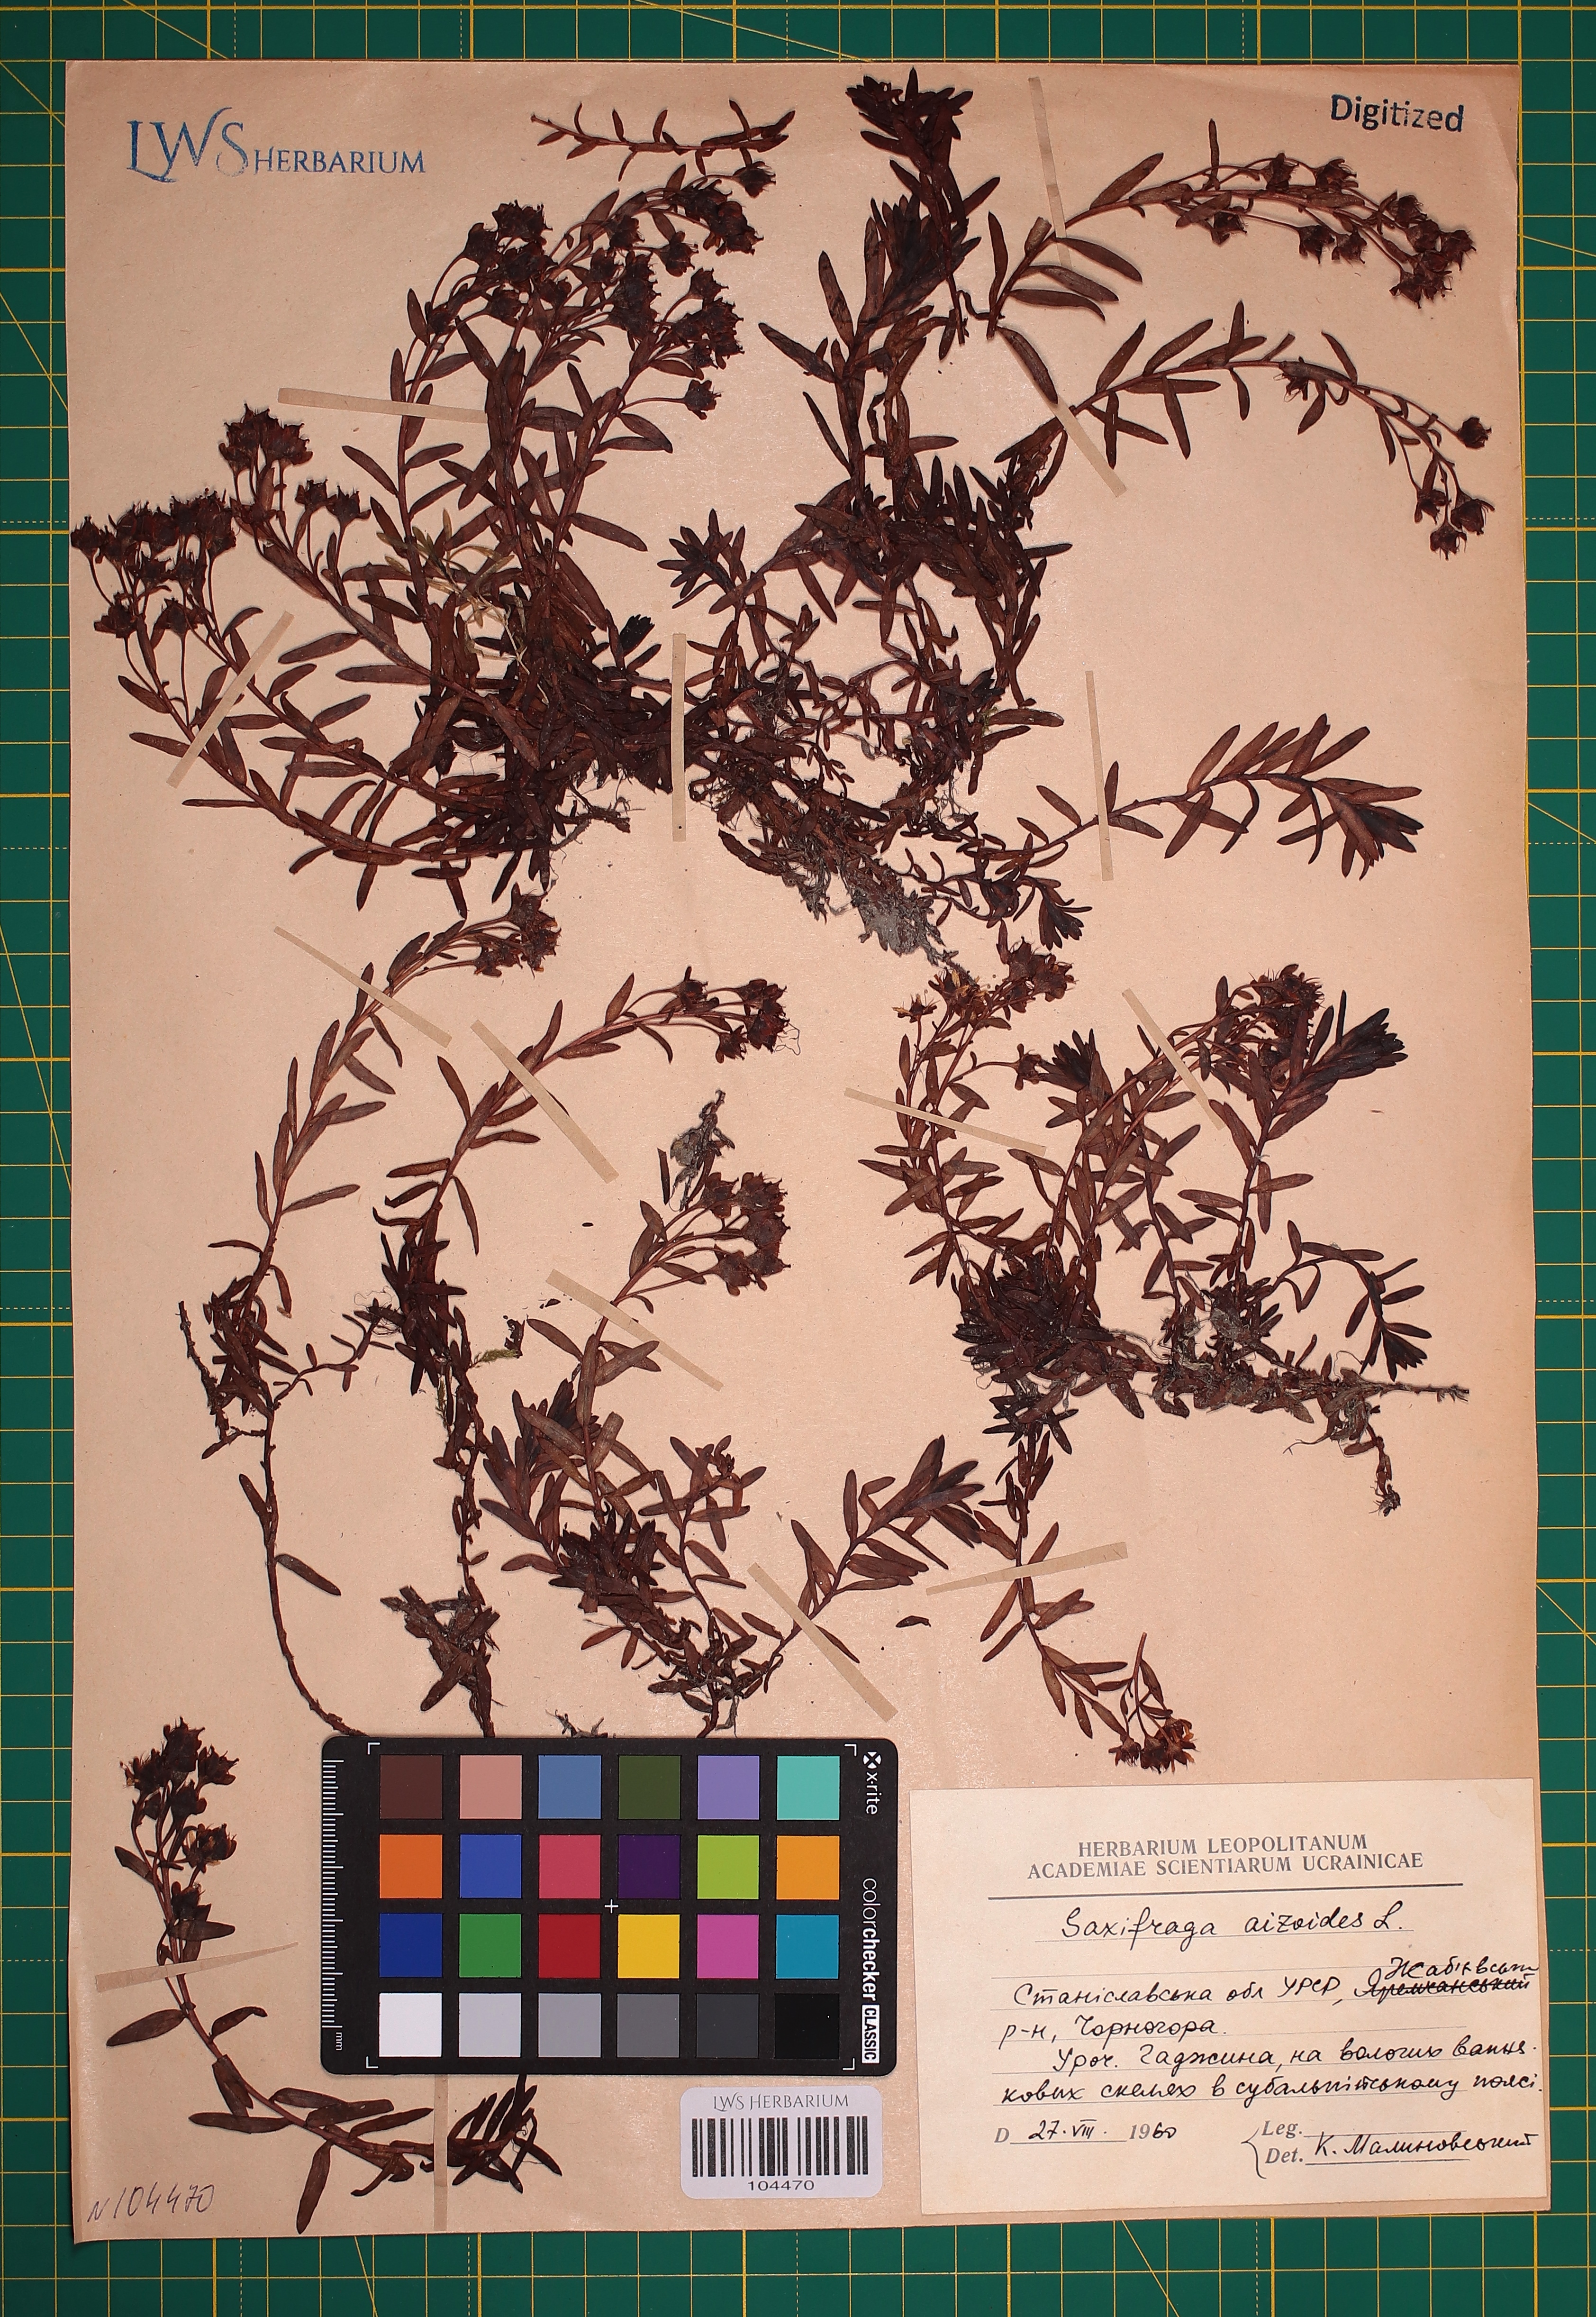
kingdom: Plantae
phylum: Tracheophyta
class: Magnoliopsida
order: Saxifragales
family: Saxifragaceae
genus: Saxifraga
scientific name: Saxifraga aizoides
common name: Yellow mountain saxifrage
